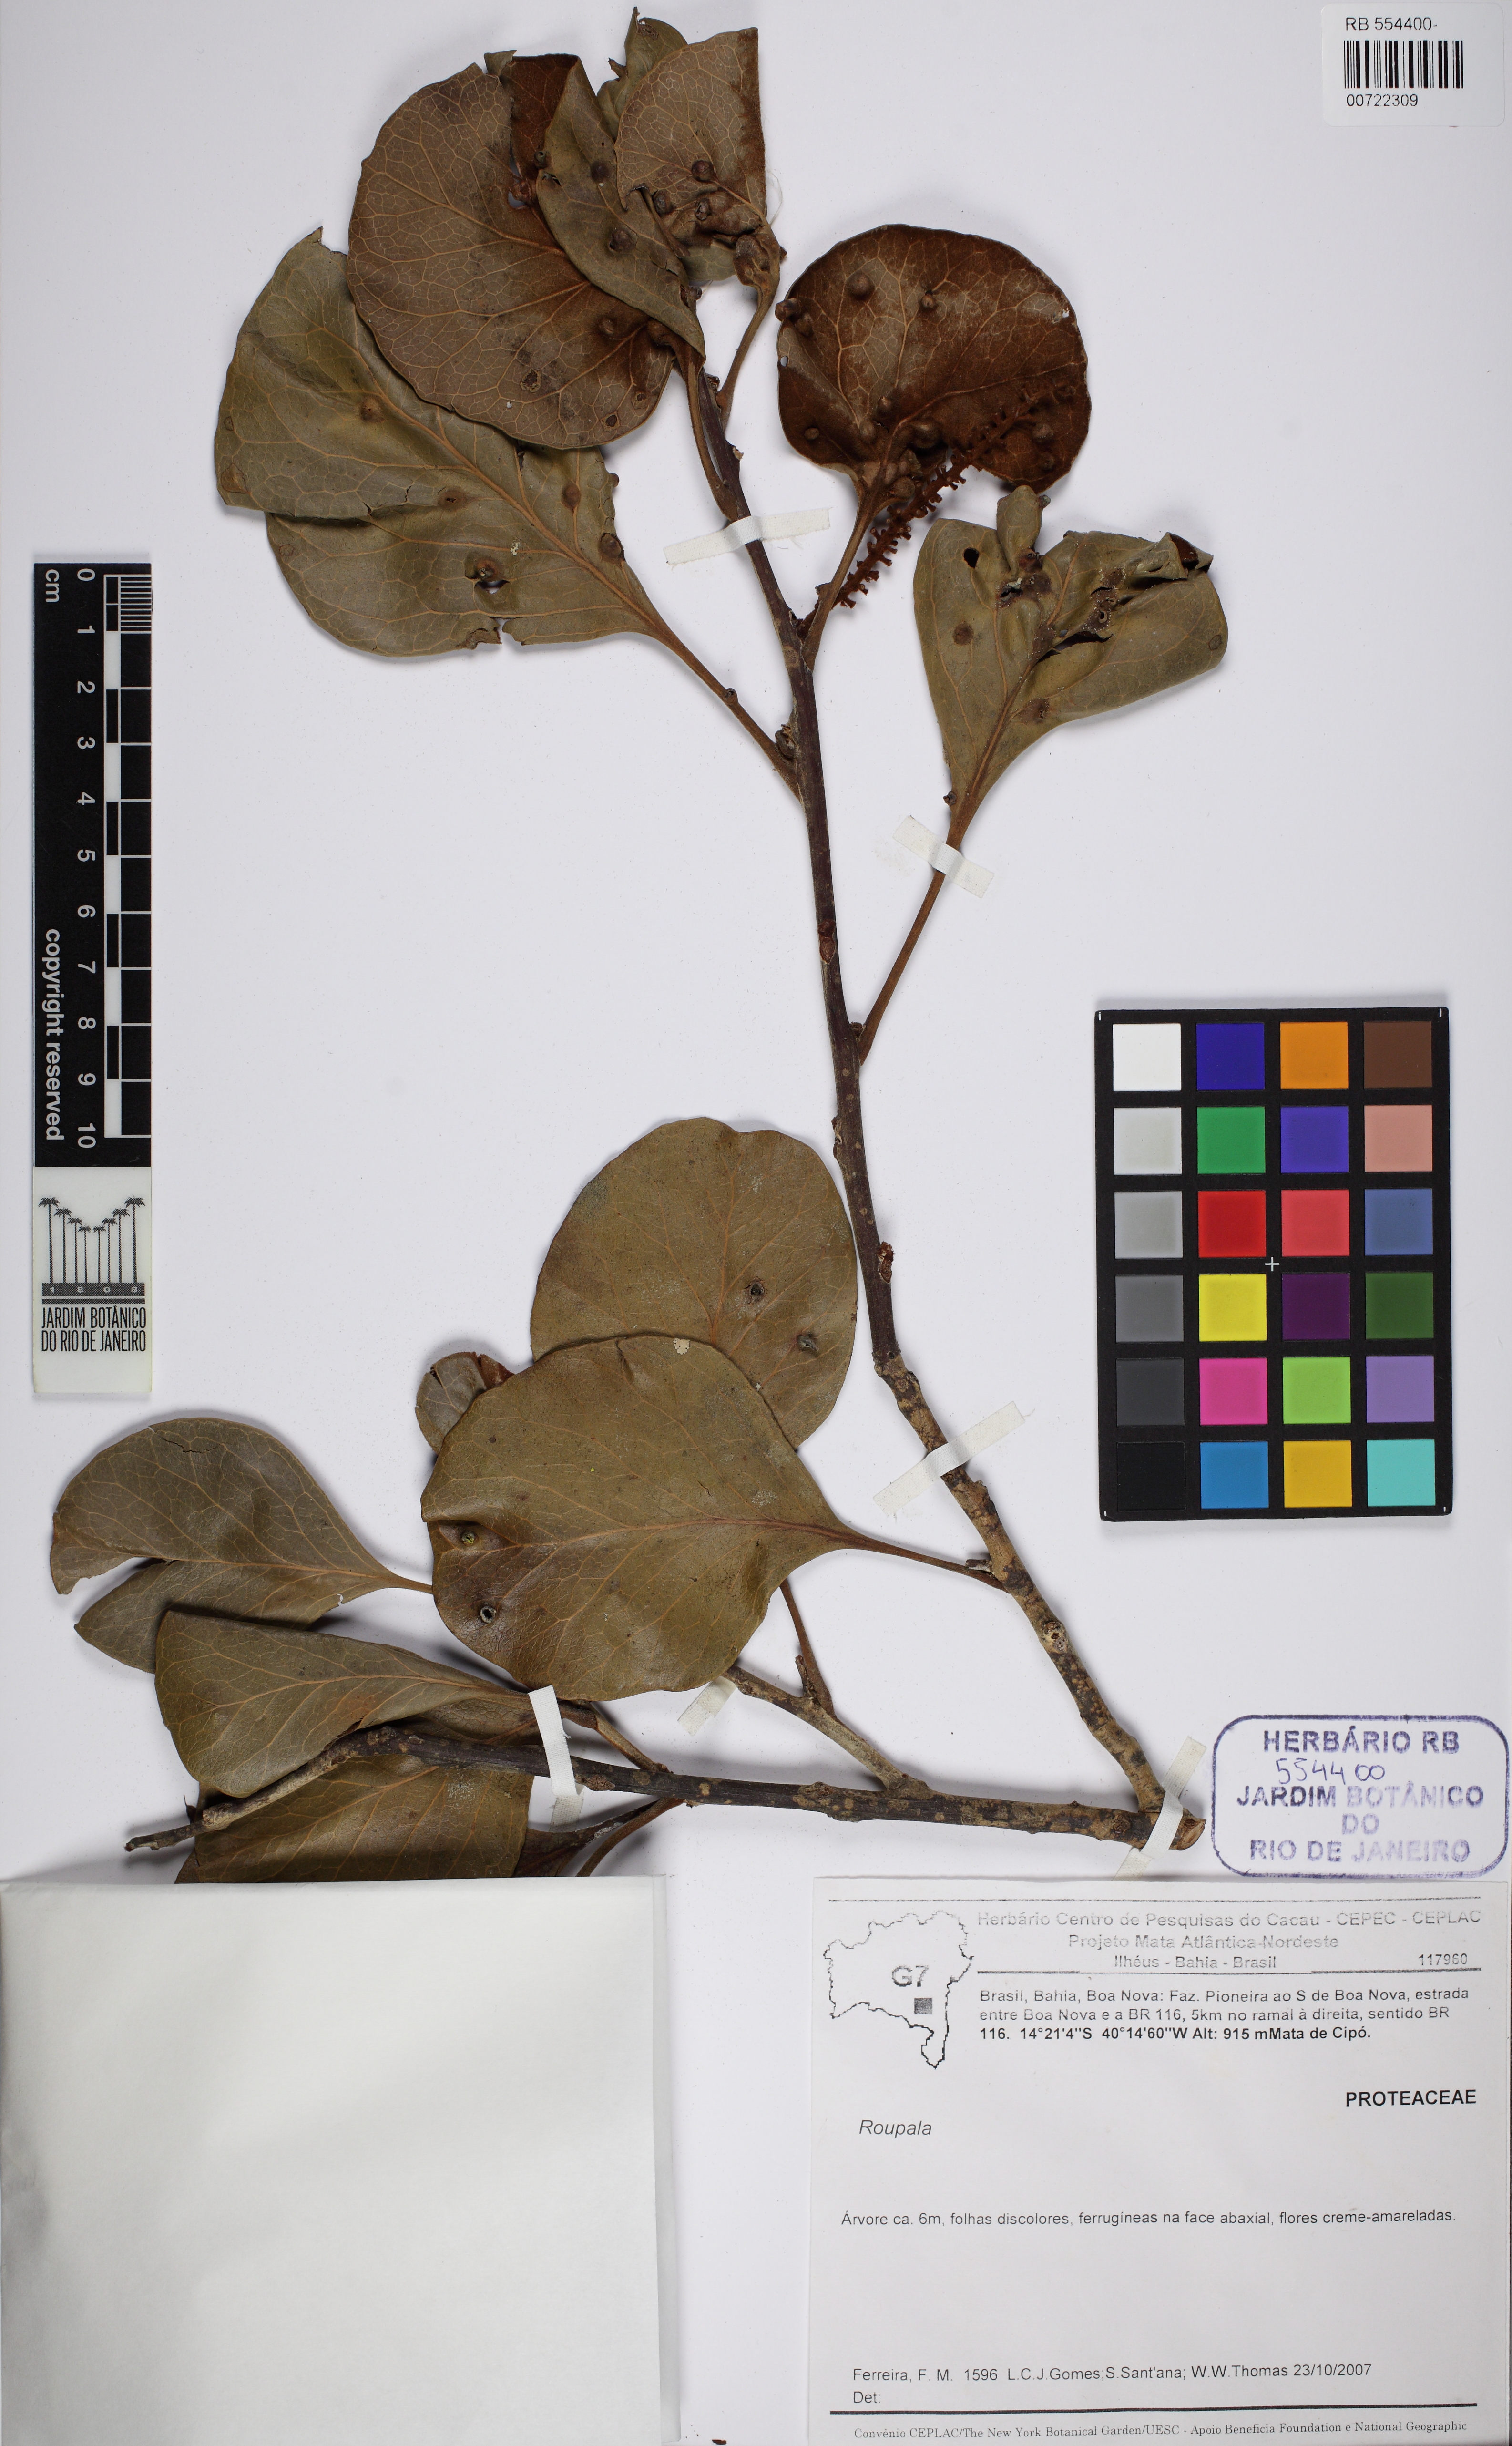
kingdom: Plantae
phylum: Tracheophyta
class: Magnoliopsida
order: Proteales
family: Proteaceae
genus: Roupala
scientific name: Roupala
